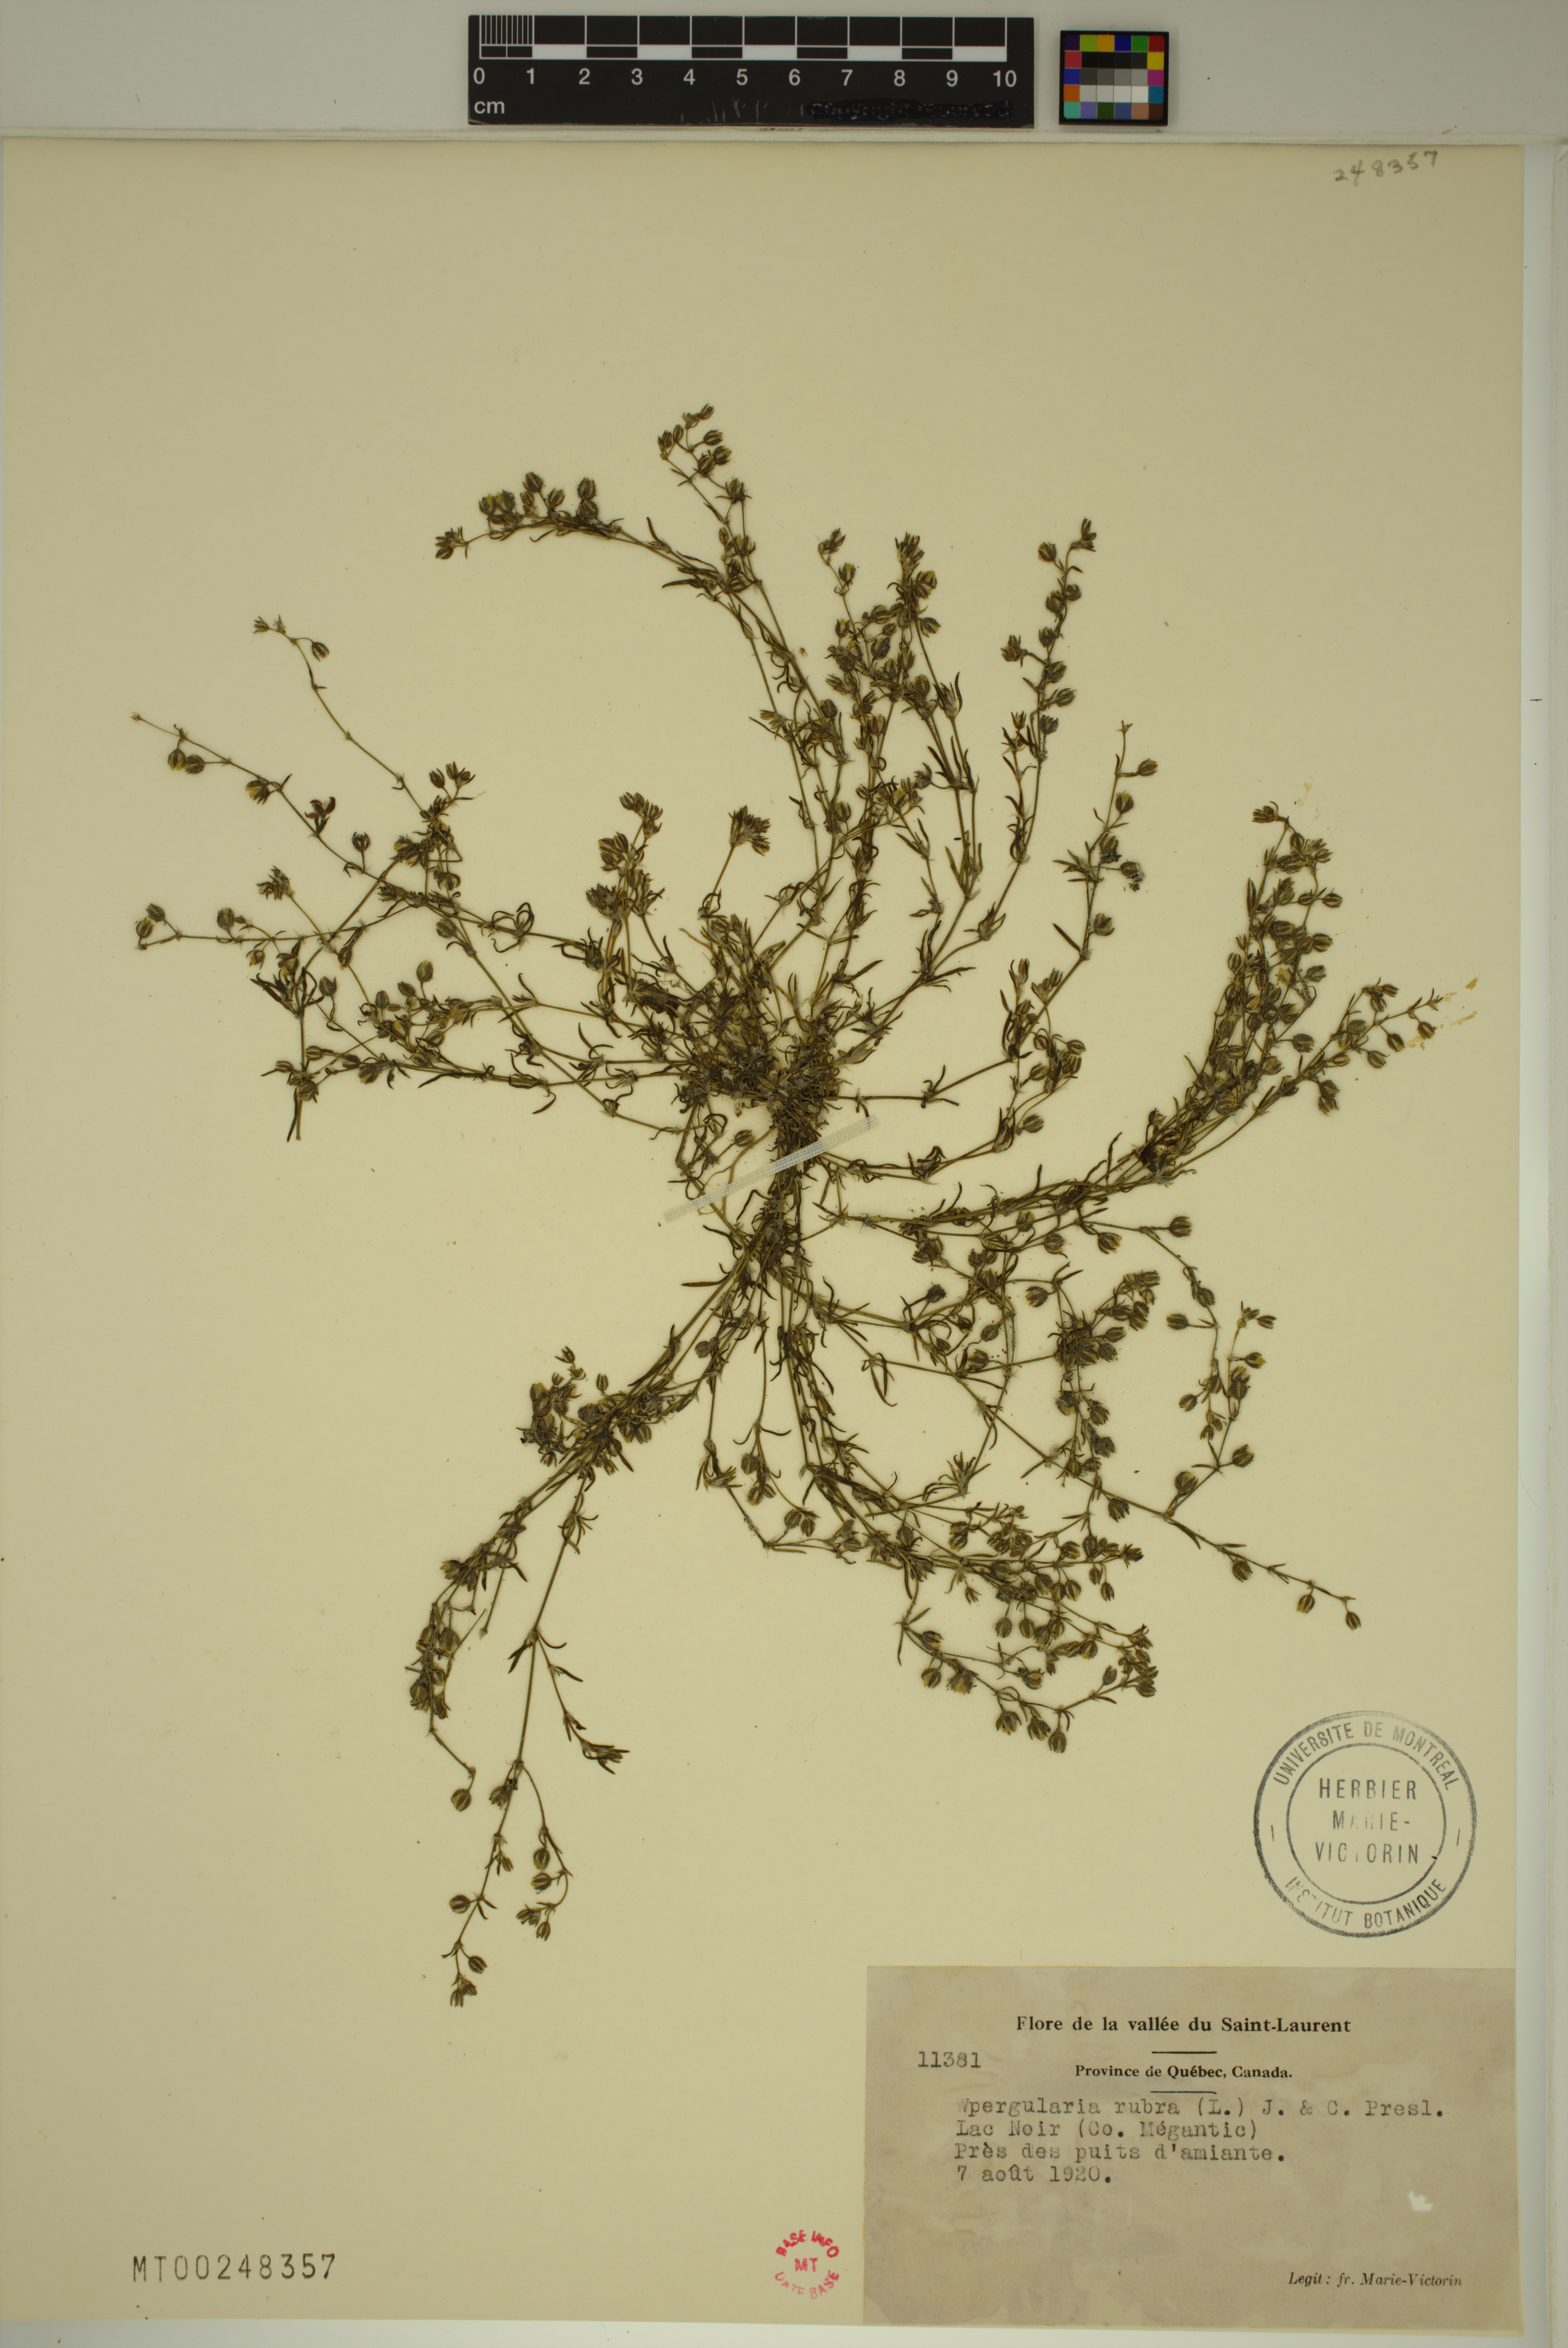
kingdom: Plantae
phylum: Tracheophyta
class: Magnoliopsida
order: Caryophyllales
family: Caryophyllaceae
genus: Spergularia
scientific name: Spergularia rubra
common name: Red sand-spurrey
